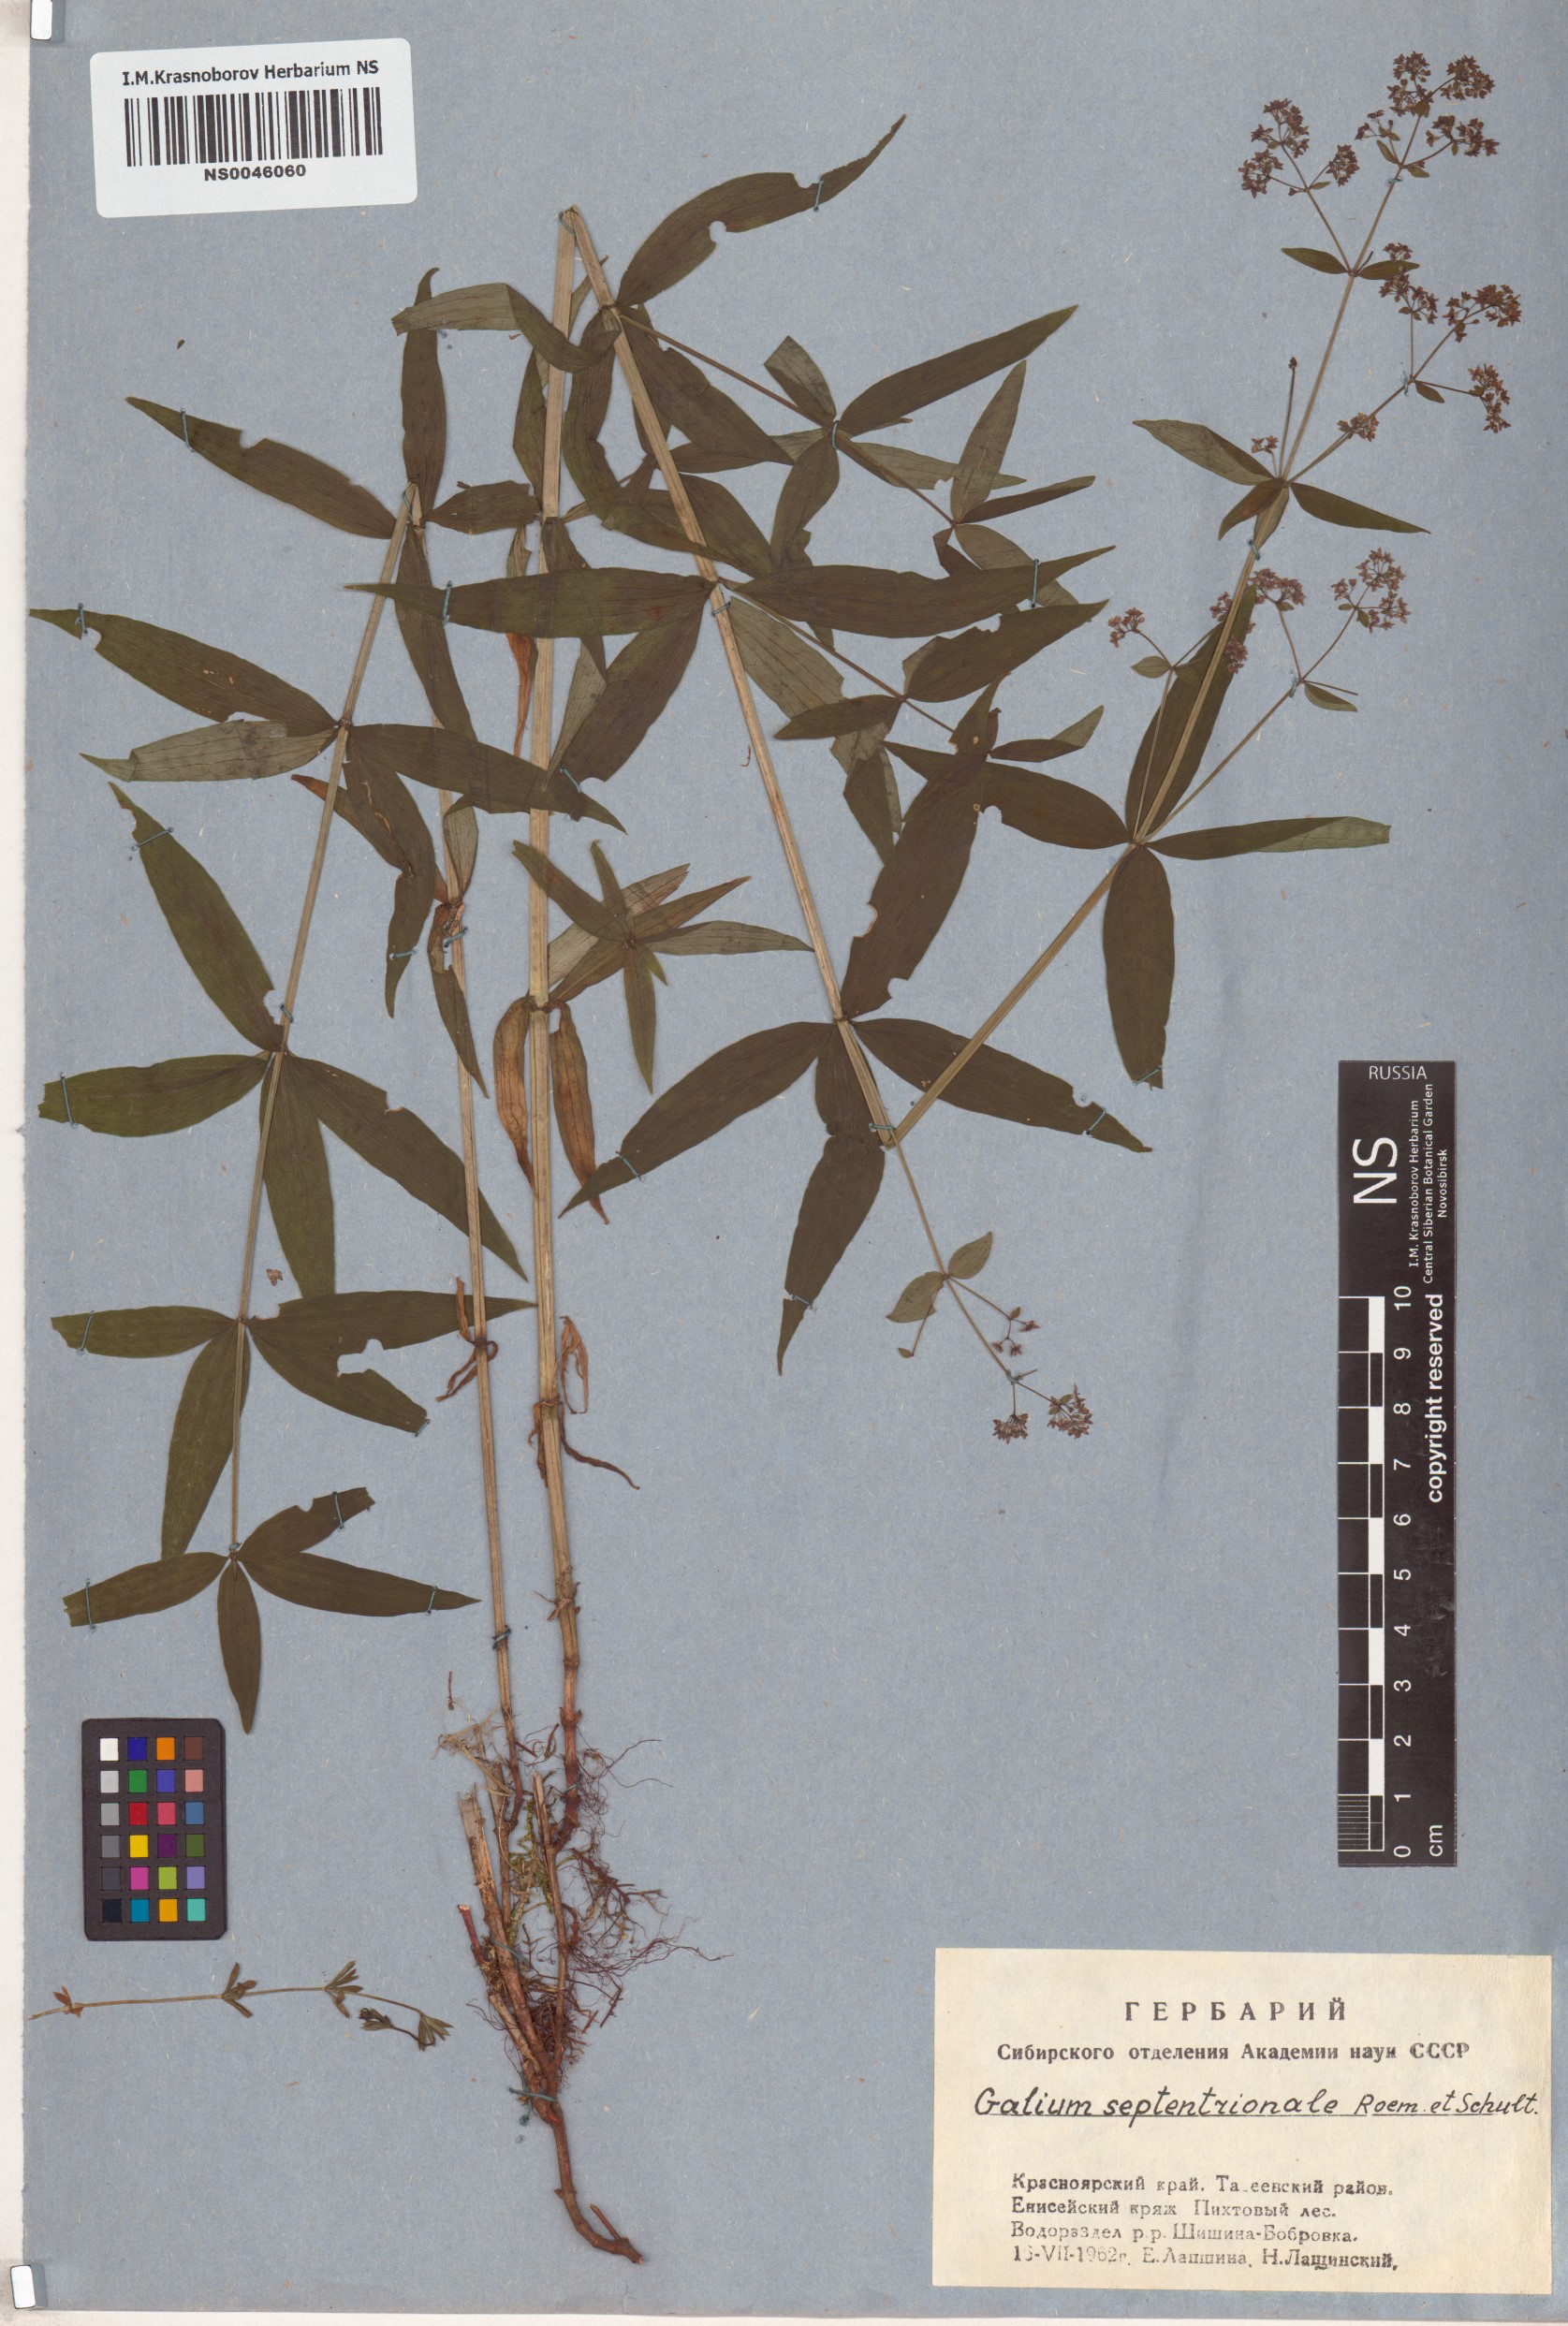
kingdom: Plantae
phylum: Tracheophyta
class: Magnoliopsida
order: Gentianales
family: Rubiaceae
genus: Galium
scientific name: Galium boreale
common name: Northern bedstraw
